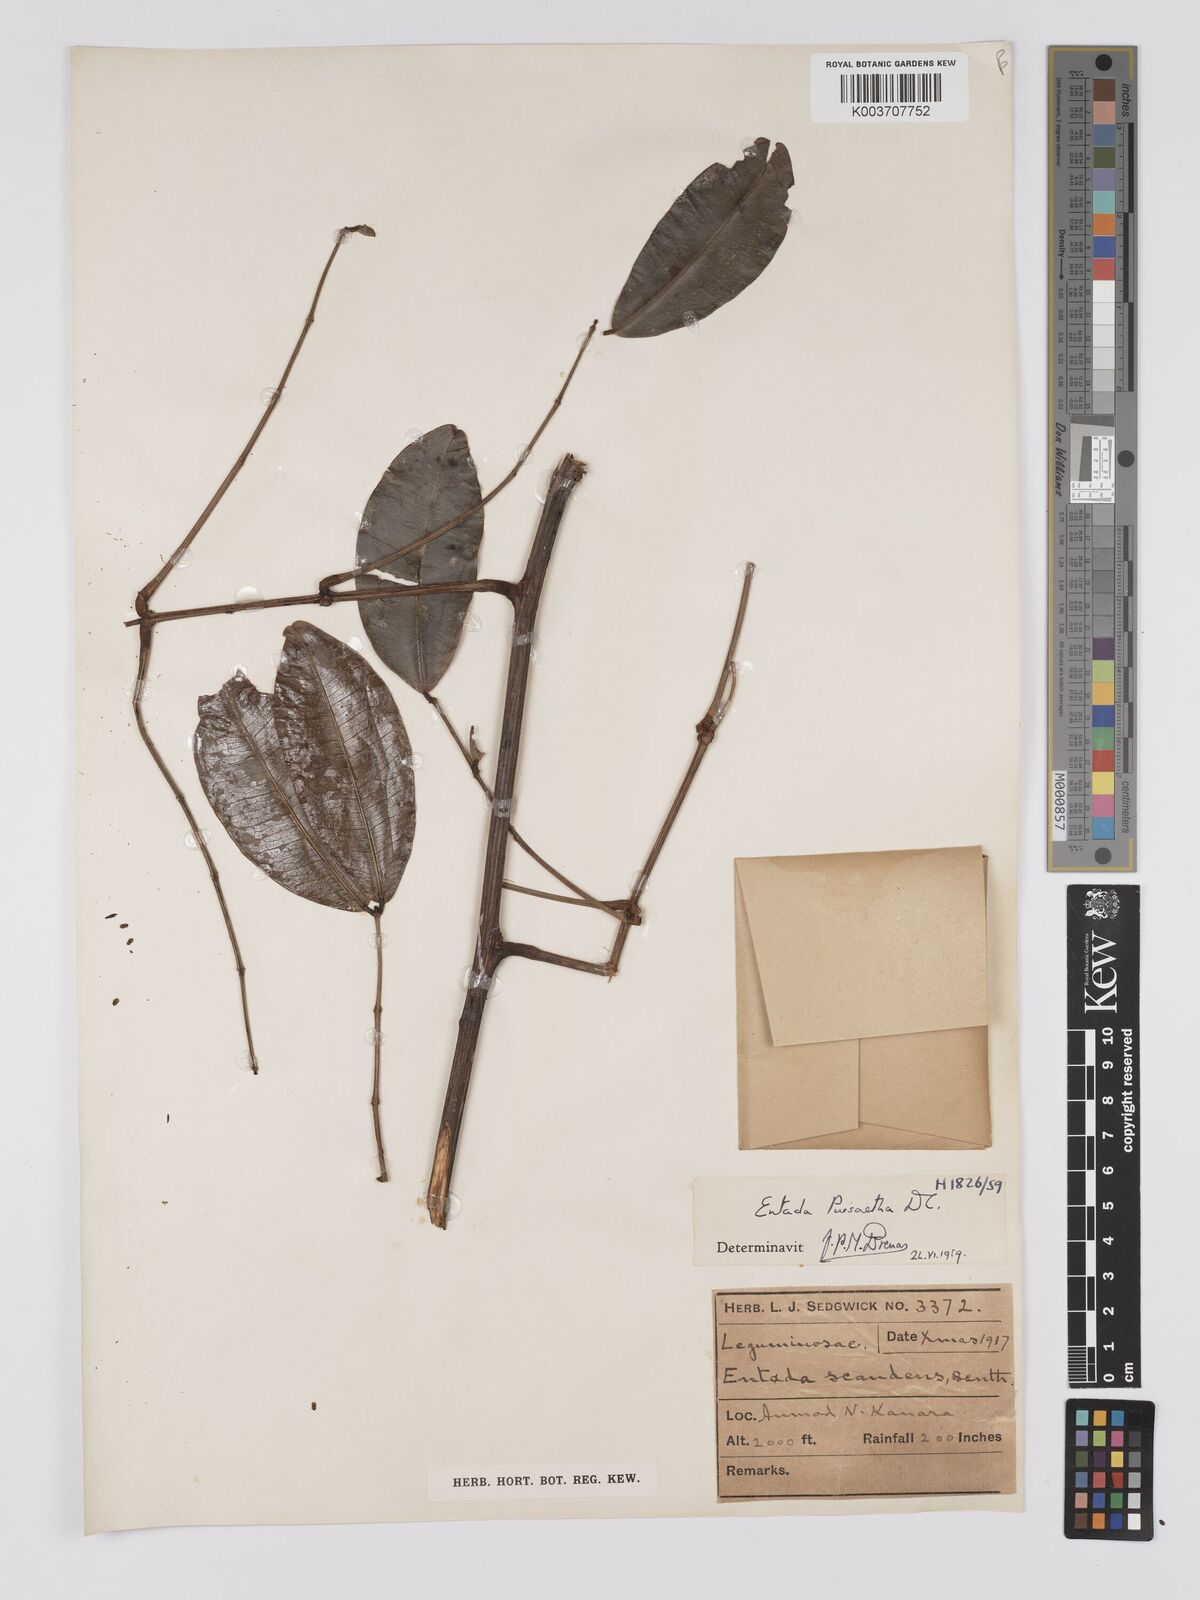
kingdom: Plantae
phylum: Tracheophyta
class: Magnoliopsida
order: Fabales
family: Fabaceae
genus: Entada
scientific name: Entada rheedei
